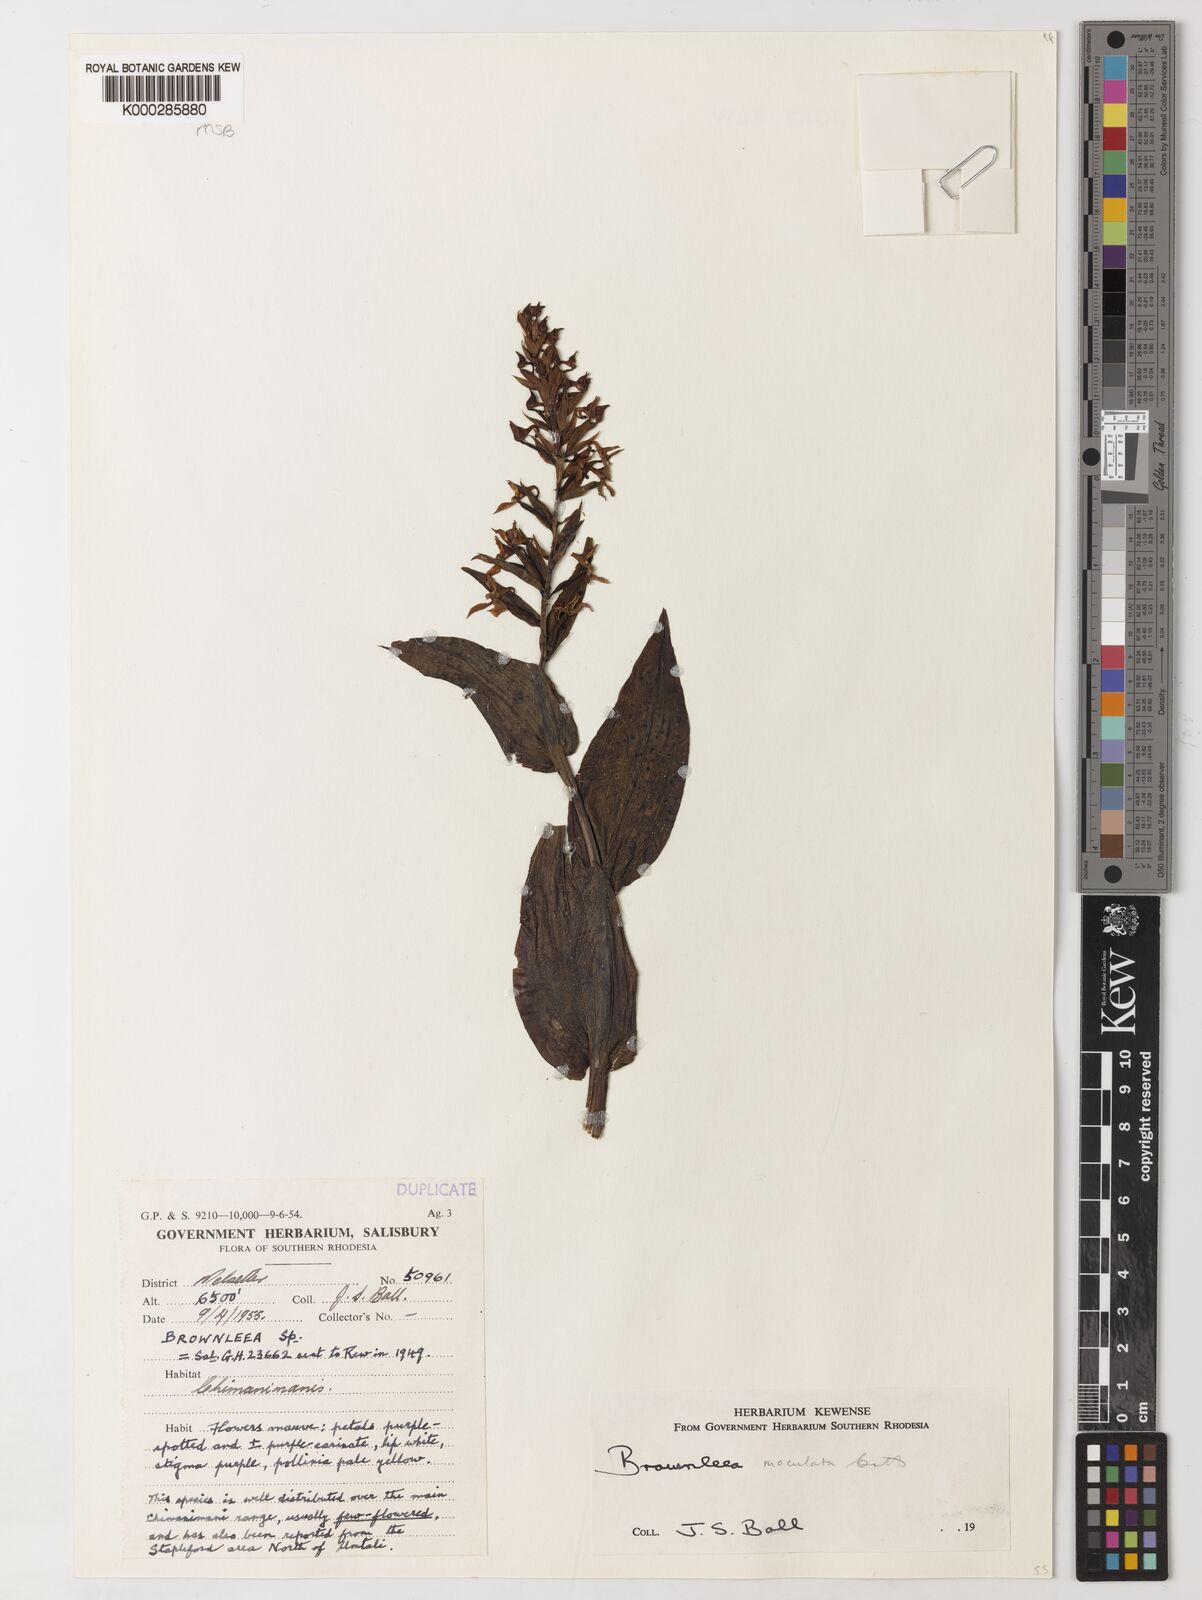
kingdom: Plantae
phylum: Tracheophyta
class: Liliopsida
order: Asparagales
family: Orchidaceae
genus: Brownleea
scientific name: Brownleea maculata
